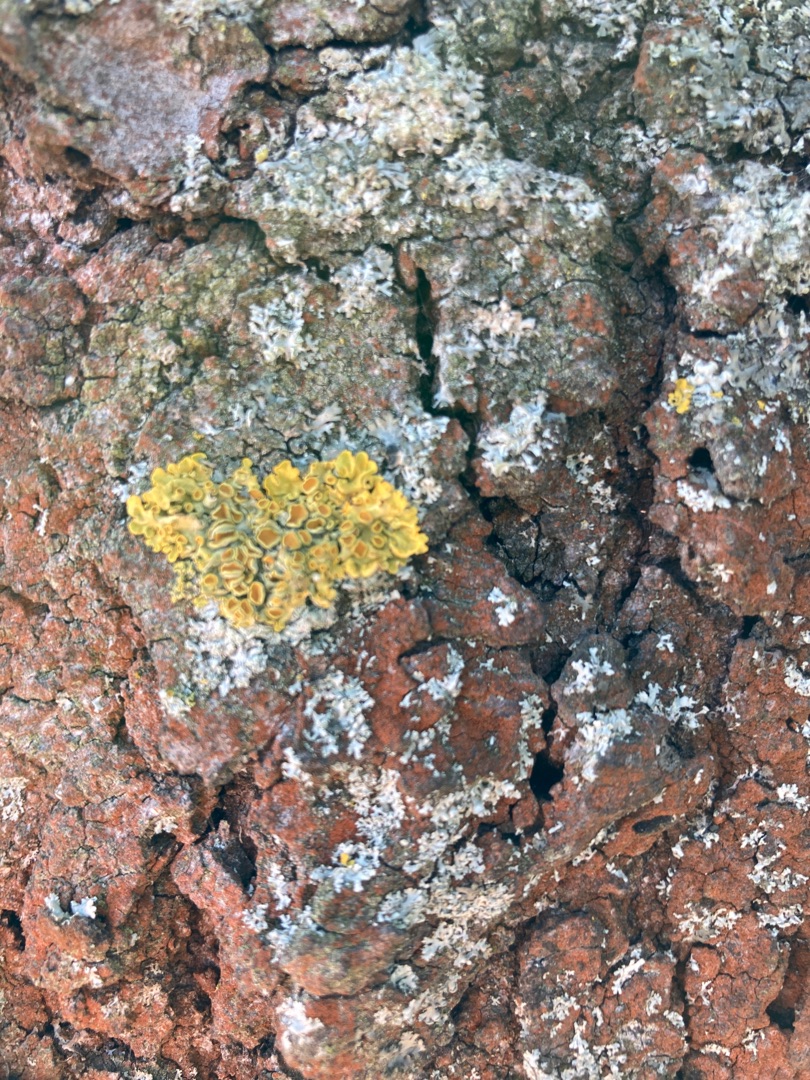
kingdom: Fungi
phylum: Ascomycota
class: Lecanoromycetes
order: Teloschistales
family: Teloschistaceae
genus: Xanthoria
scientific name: Xanthoria parietina
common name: Almindelig væggelav
